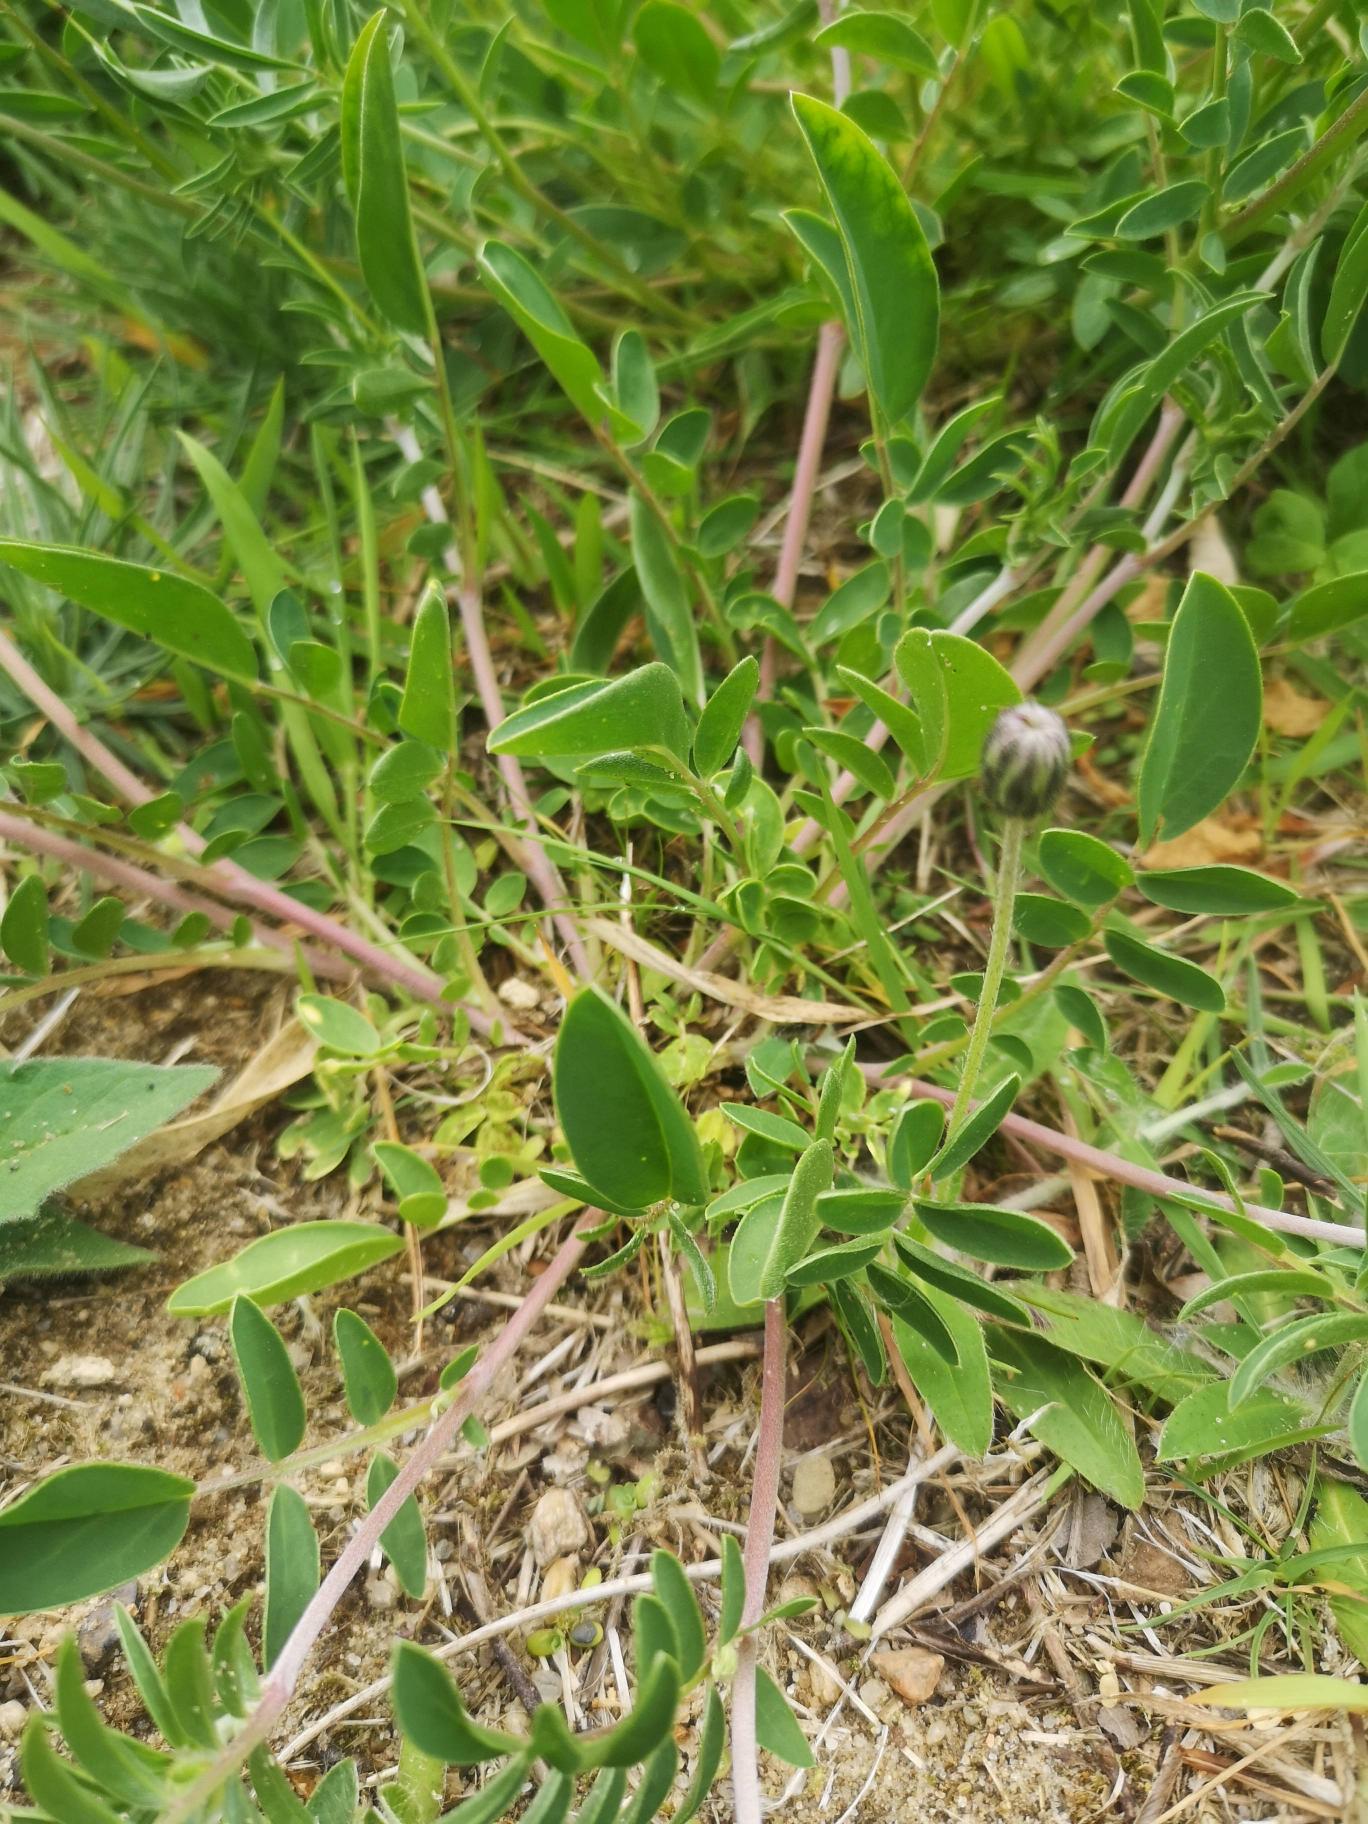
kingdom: Plantae
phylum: Tracheophyta
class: Magnoliopsida
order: Fabales
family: Fabaceae
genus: Anthyllis
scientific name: Anthyllis vulneraria
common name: Rundbælg
